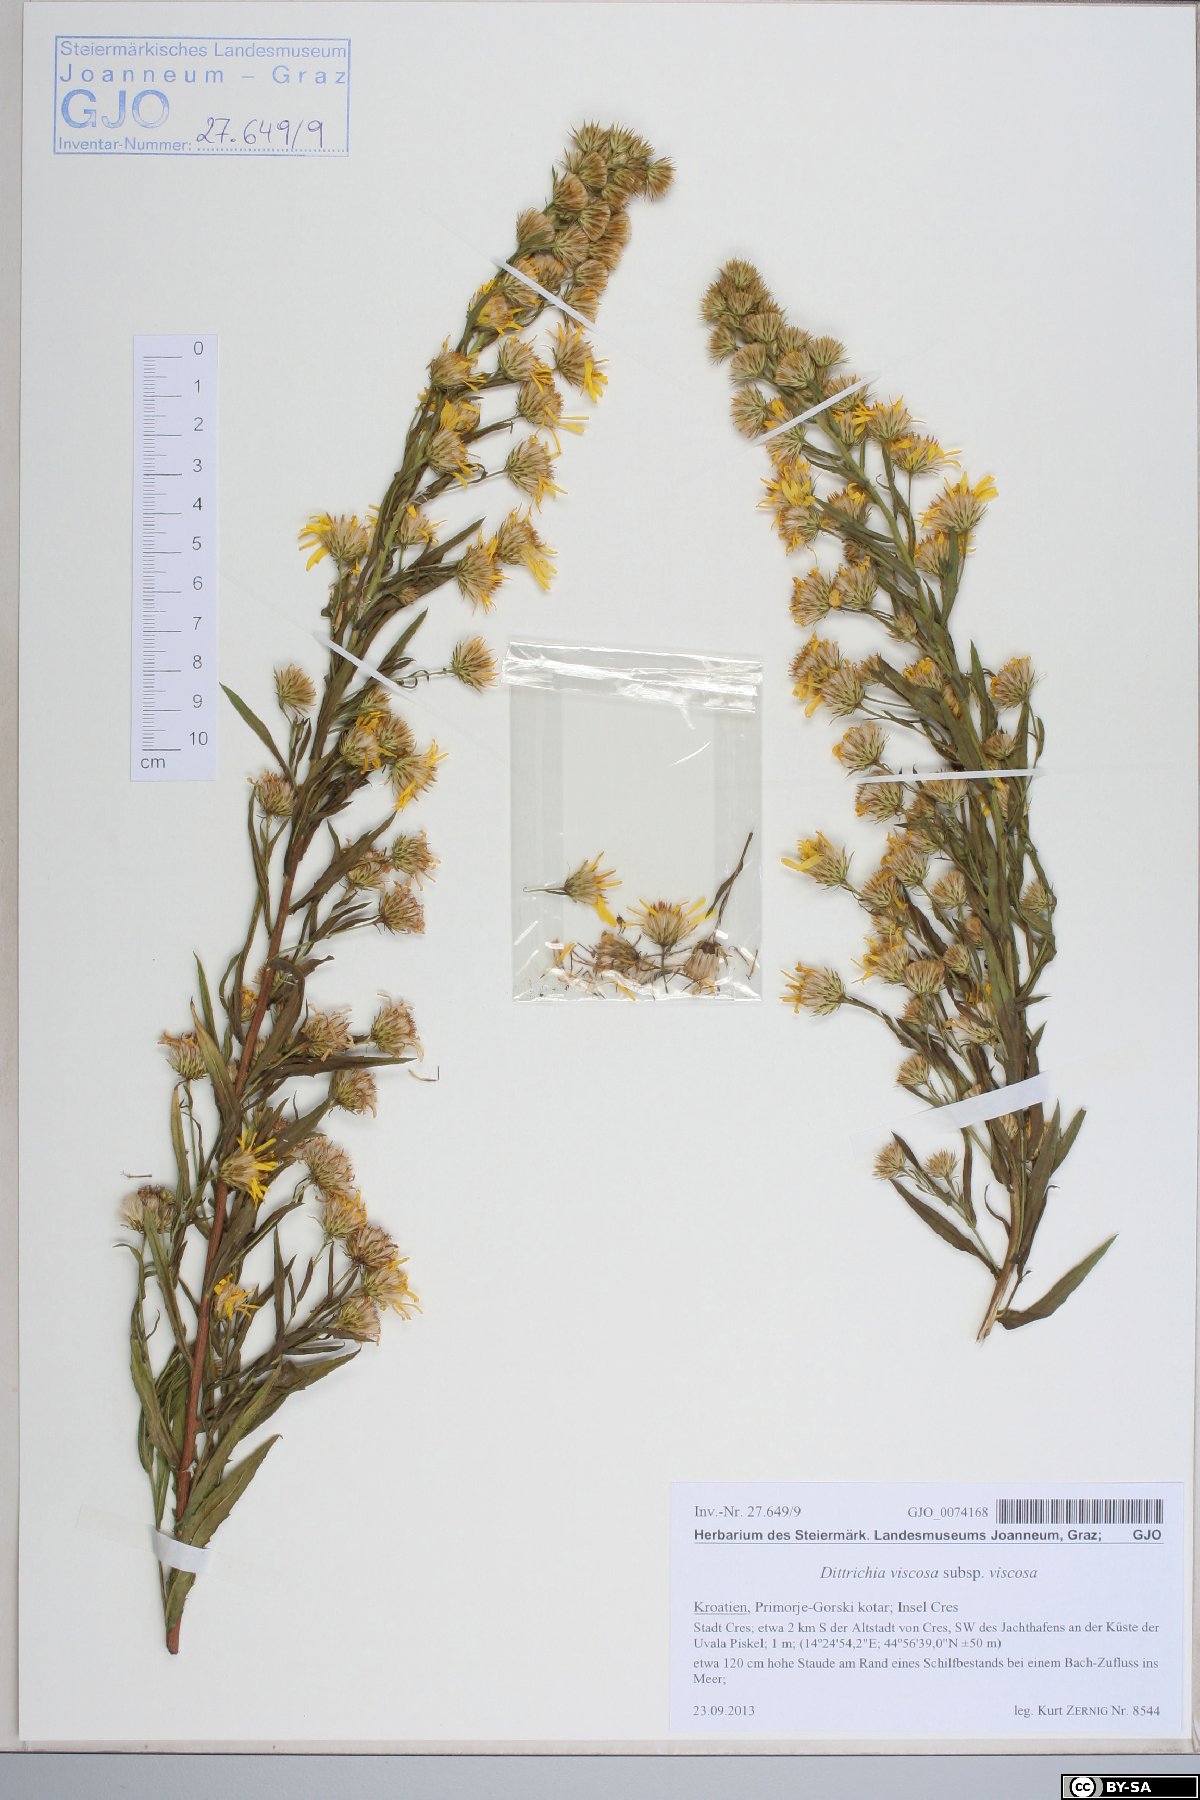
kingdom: Plantae
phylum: Tracheophyta
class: Magnoliopsida
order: Asterales
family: Asteraceae
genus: Dittrichia
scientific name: Dittrichia viscosa
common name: Woody fleabane
